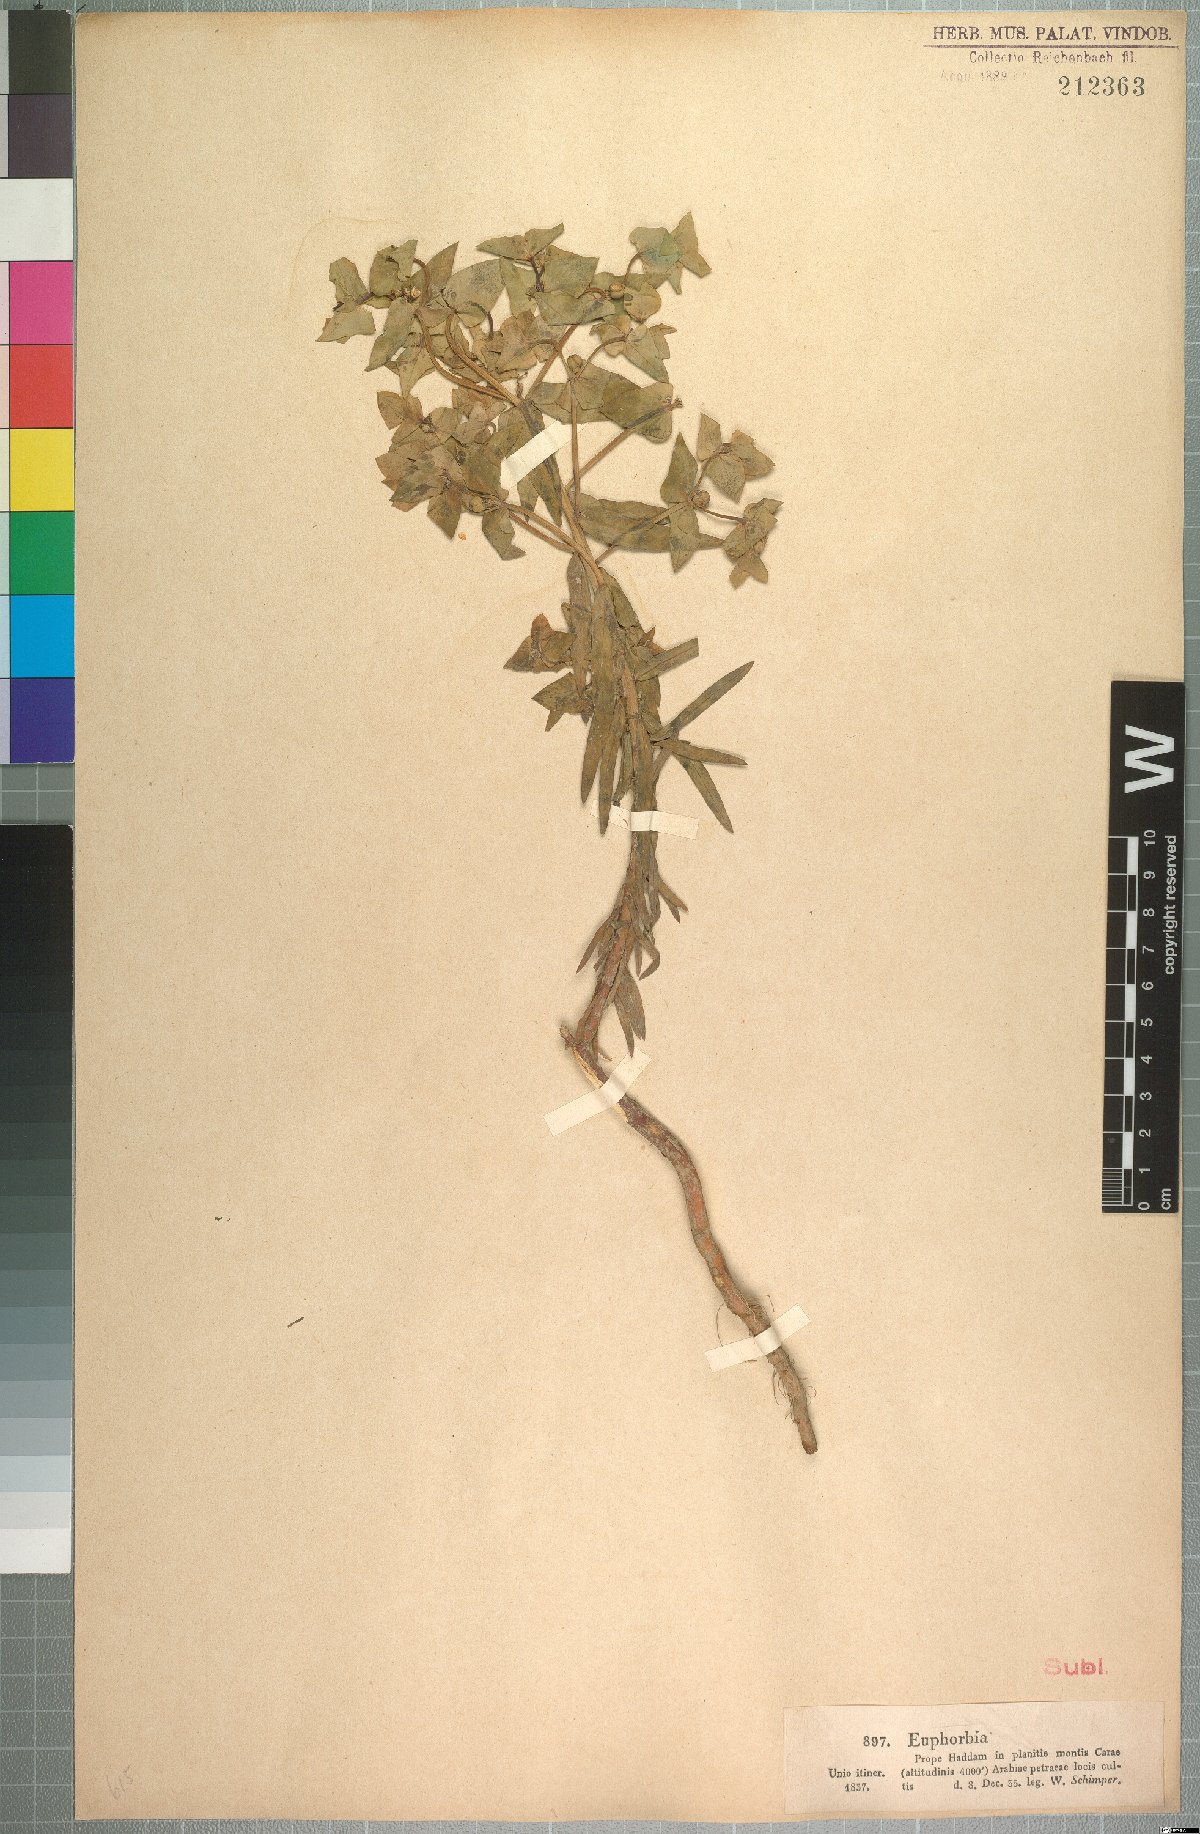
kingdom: Plantae
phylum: Tracheophyta
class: Magnoliopsida
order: Malpighiales
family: Euphorbiaceae
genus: Euphorbia
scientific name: Euphorbia schimperiana
